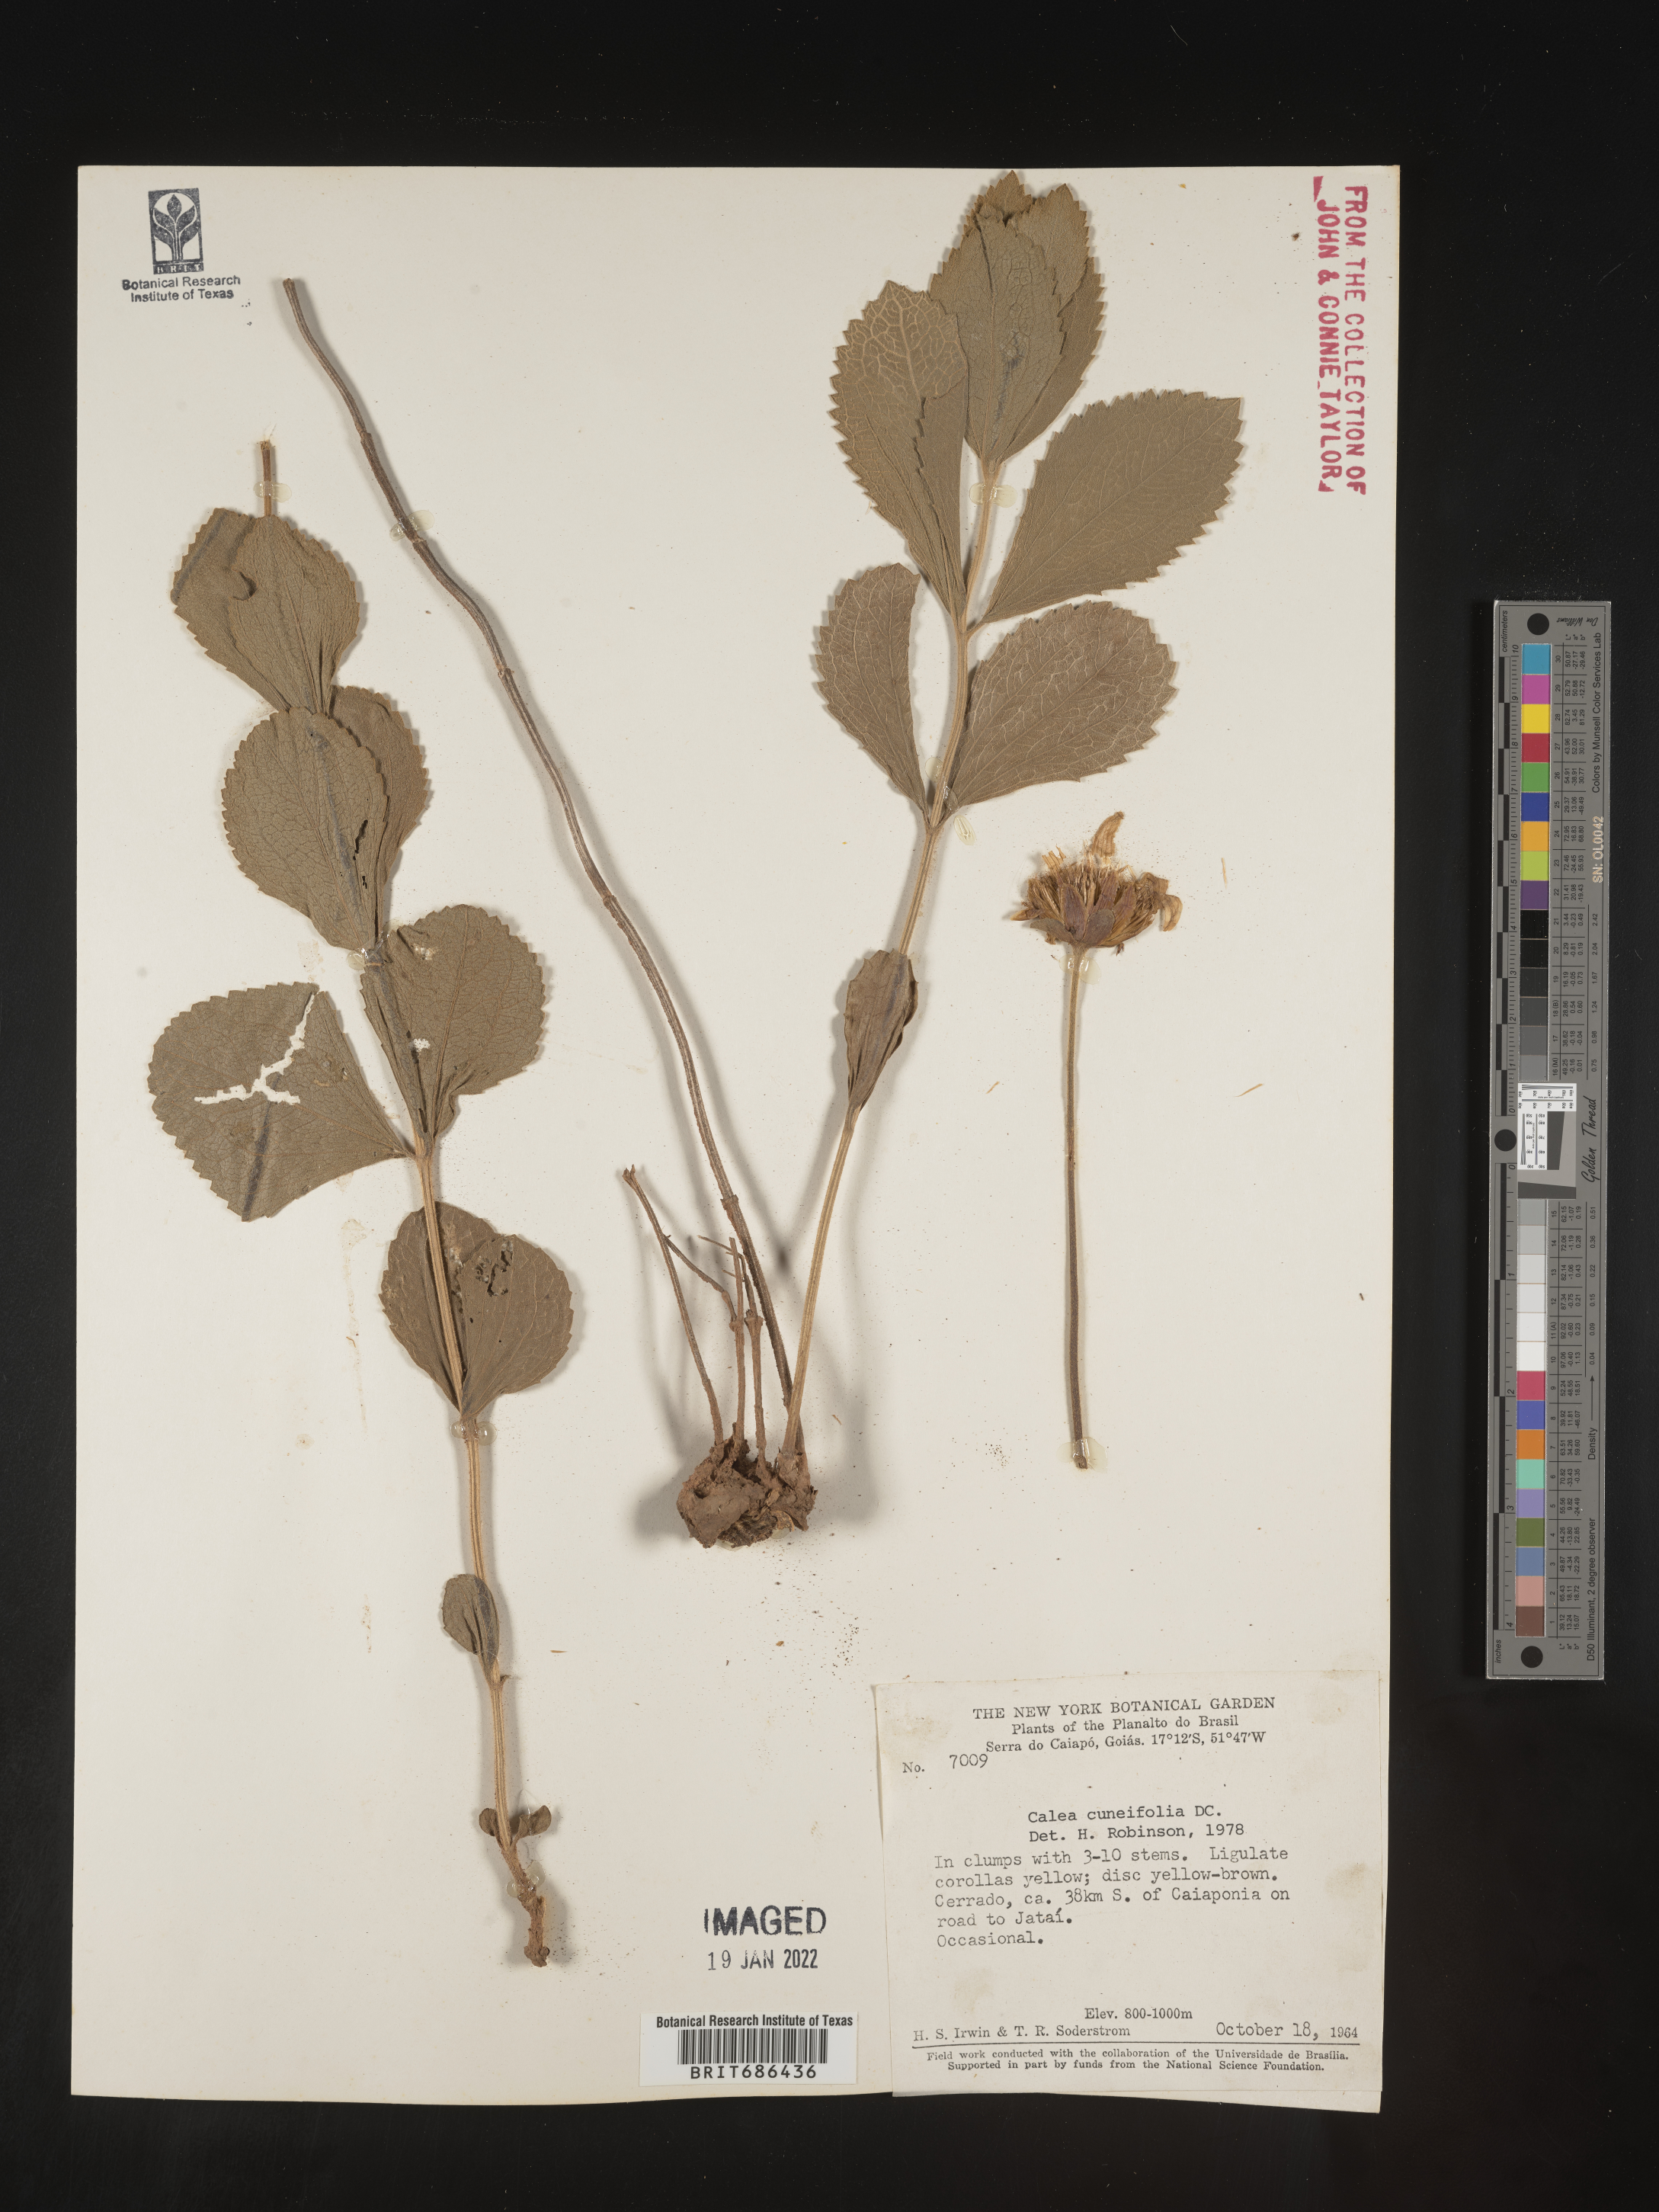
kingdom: Plantae
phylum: Tracheophyta
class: Magnoliopsida
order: Asterales
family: Asteraceae
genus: Calea
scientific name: Calea
